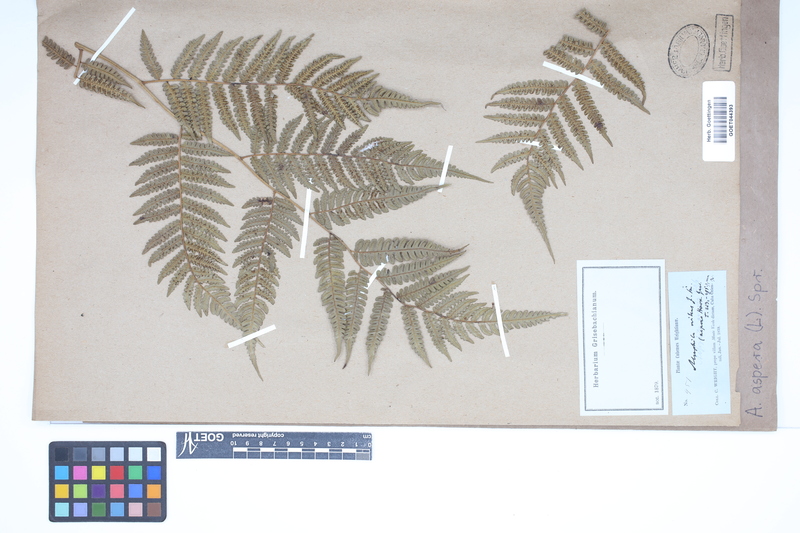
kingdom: Plantae
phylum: Tracheophyta
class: Polypodiopsida
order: Cyatheales
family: Cyatheaceae
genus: Cyathea
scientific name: Cyathea aspera
